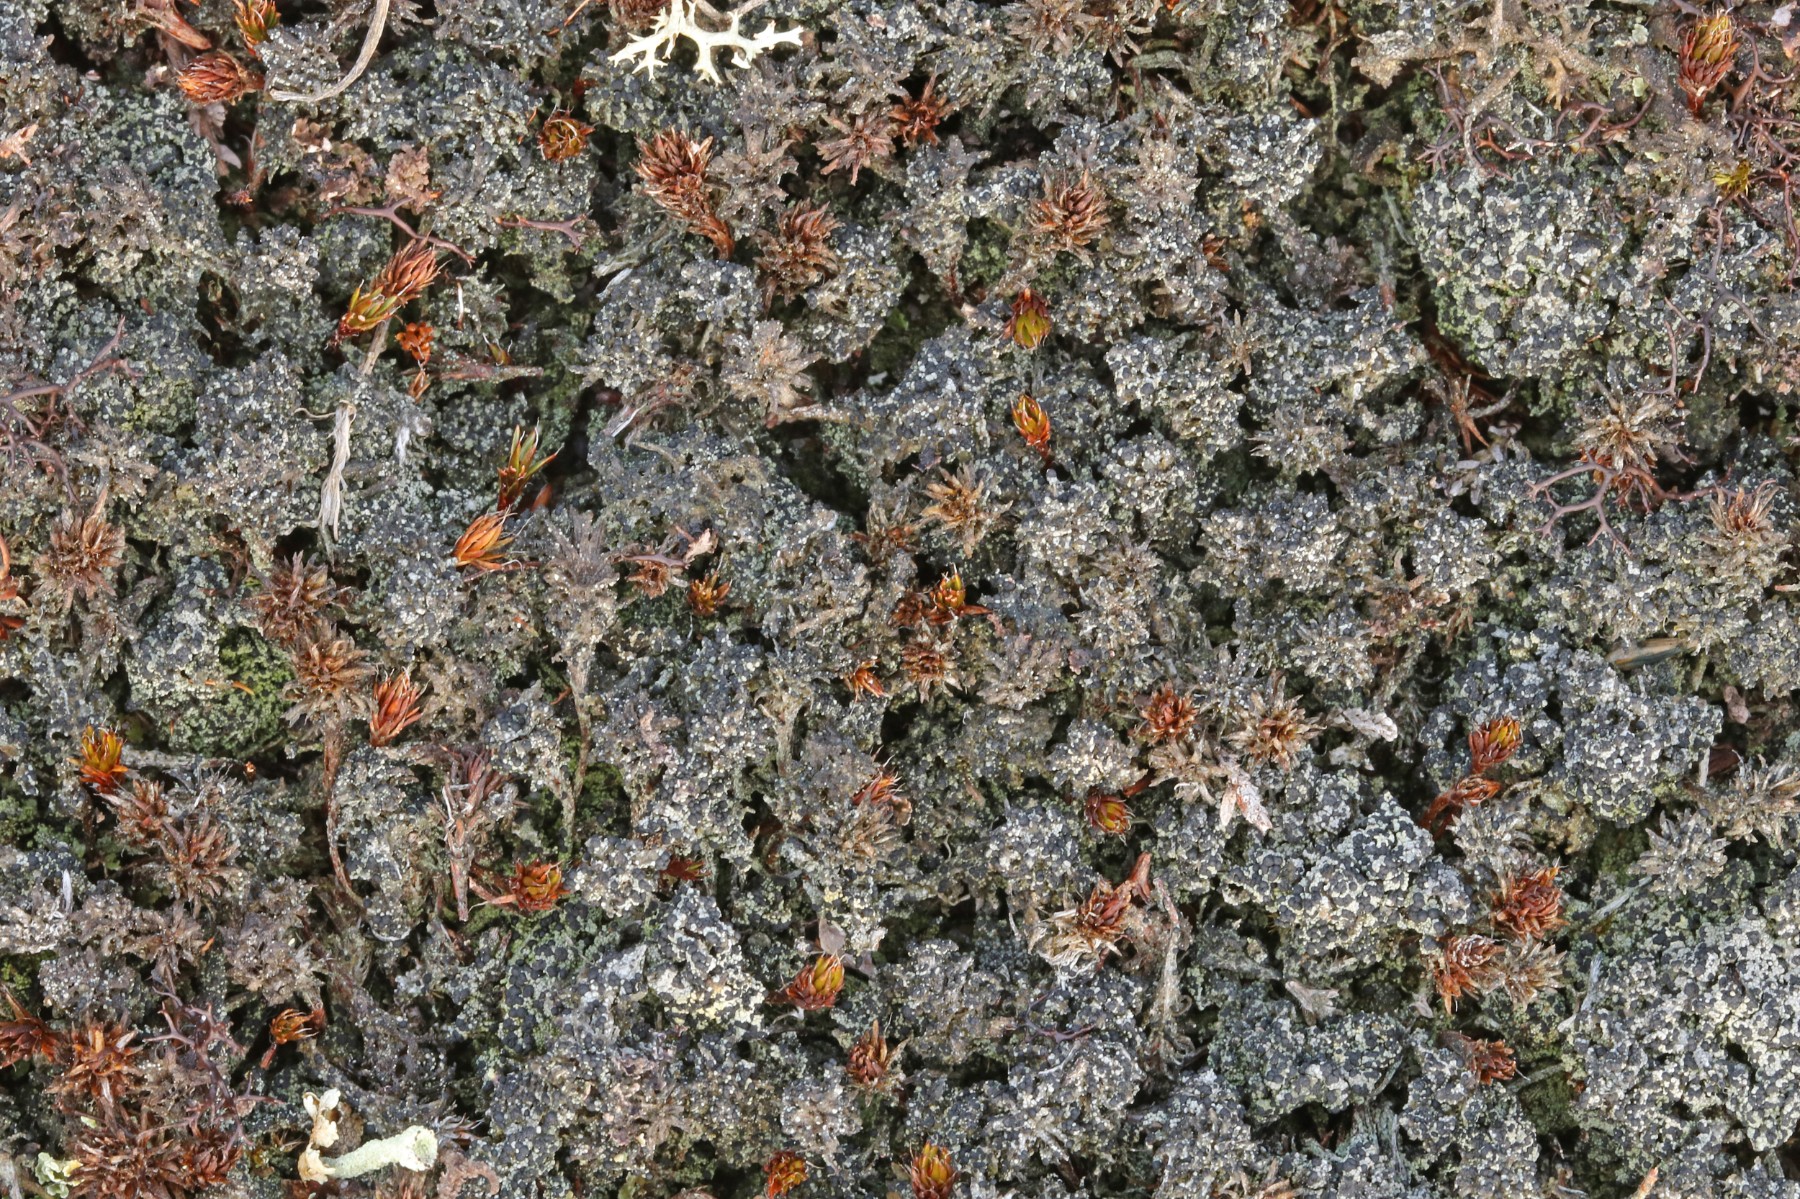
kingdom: Fungi
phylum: Ascomycota
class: Lecanoromycetes
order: Lecanorales
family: Byssolomataceae
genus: Micarea
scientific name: Micarea lignaria
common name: tørve-knaplav
